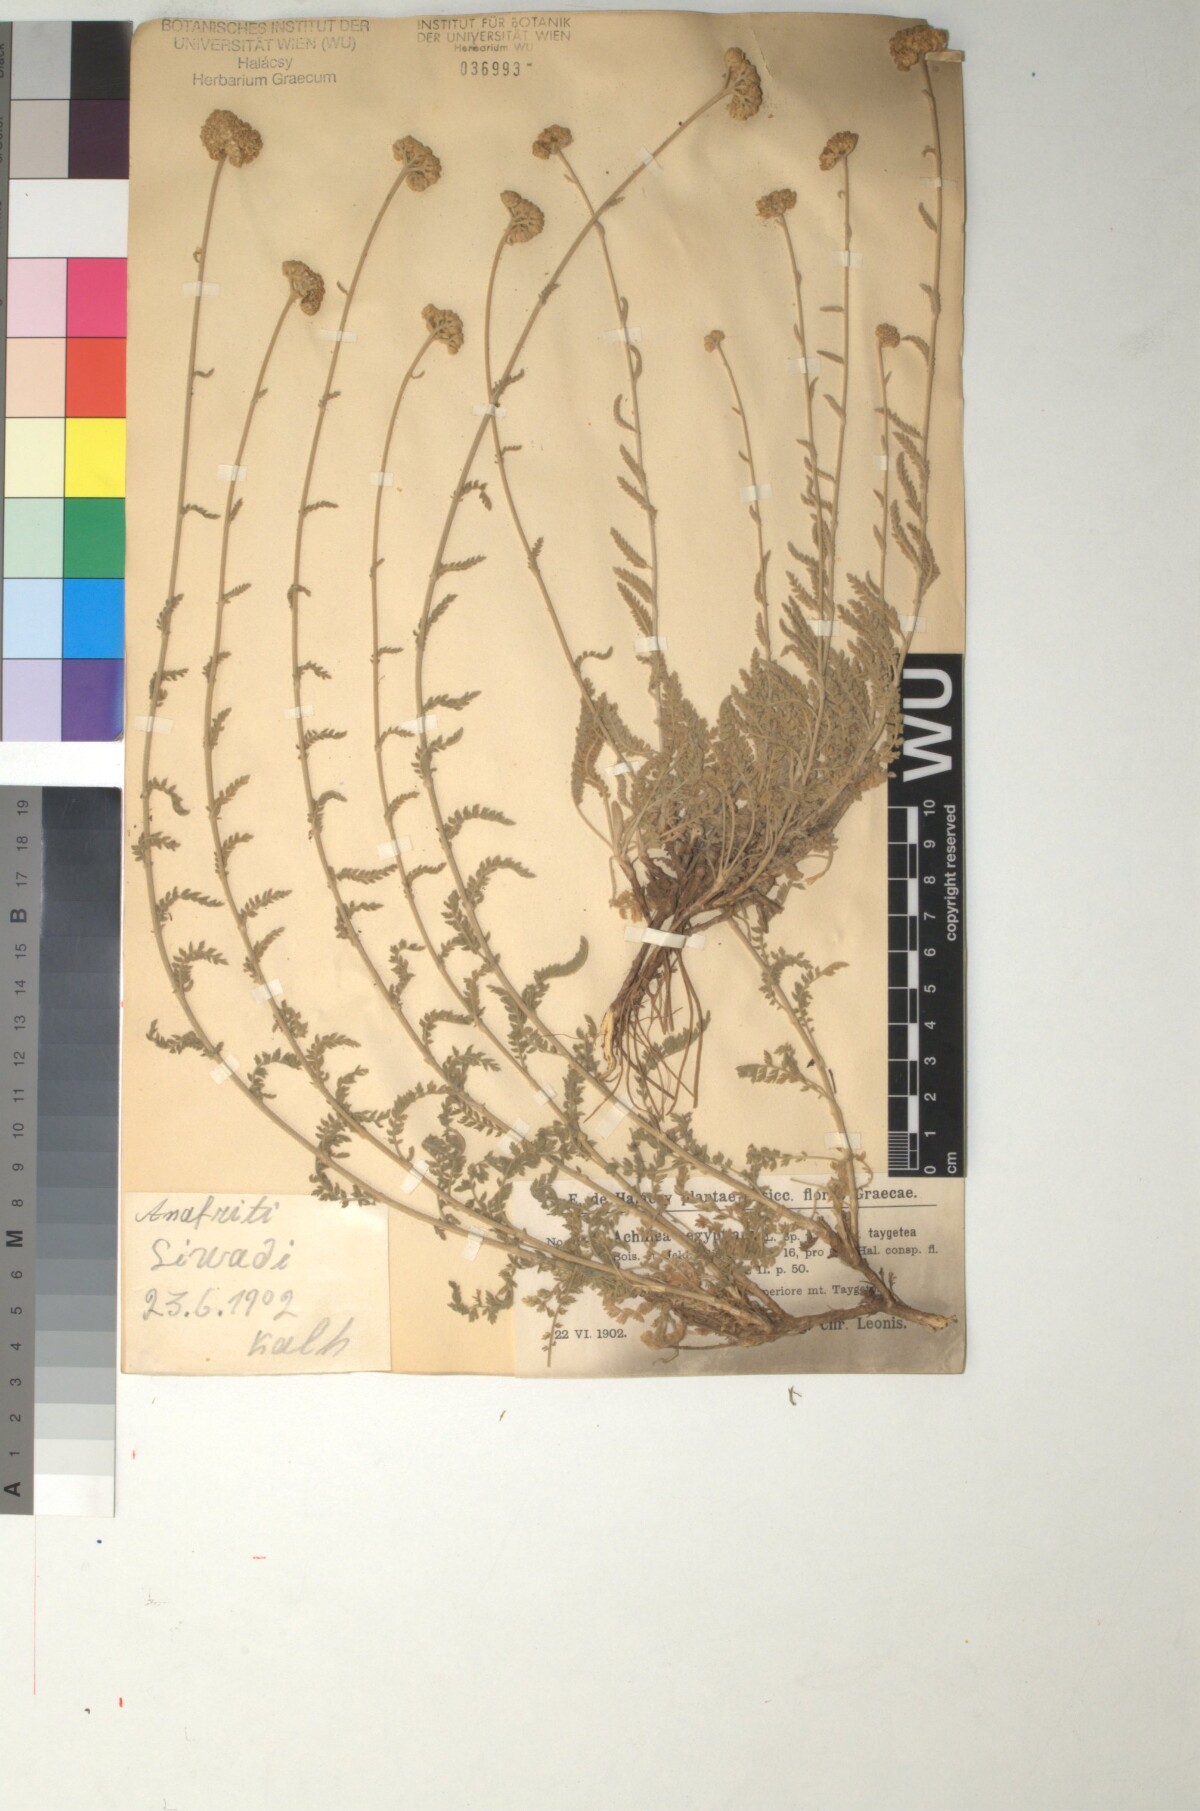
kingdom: Plantae
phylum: Tracheophyta
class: Magnoliopsida
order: Asterales
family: Asteraceae
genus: Achillea
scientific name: Achillea taygetea
